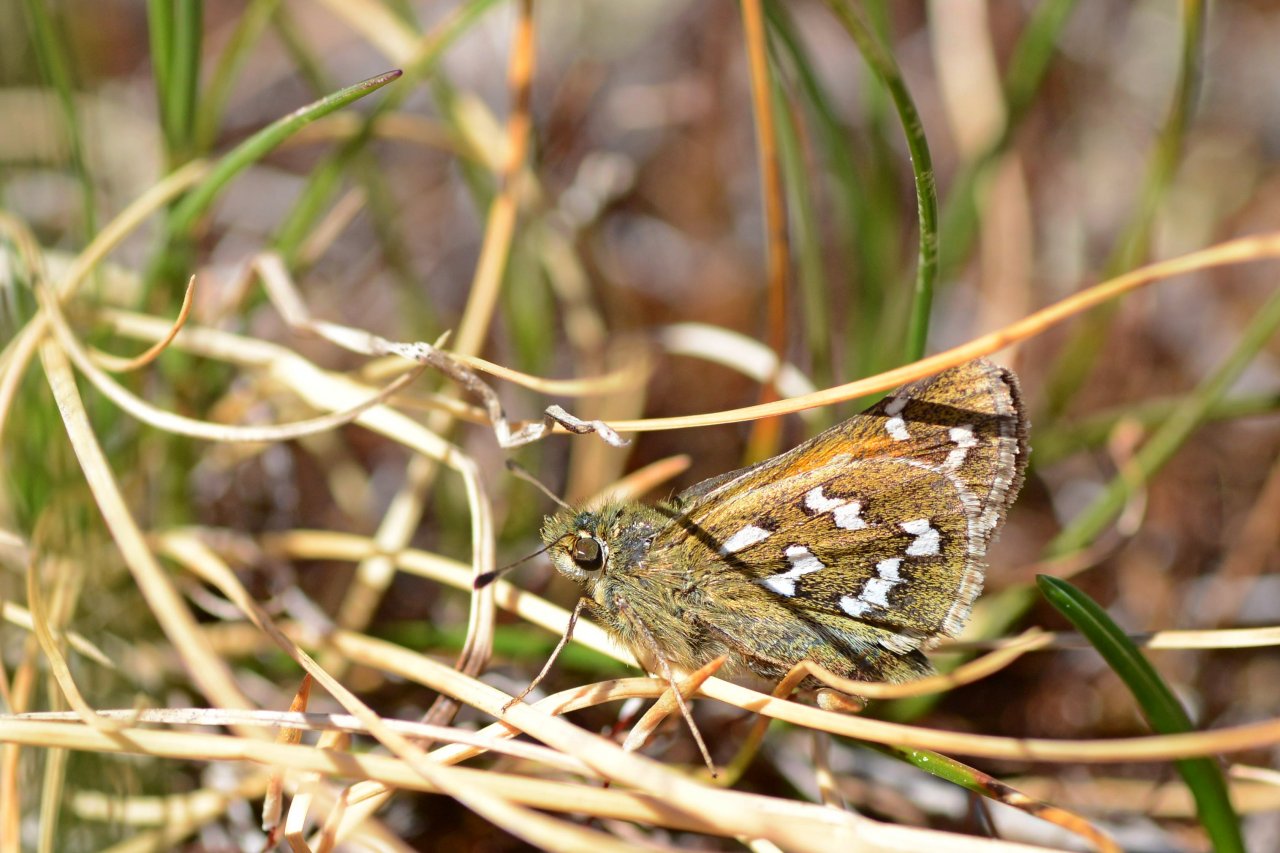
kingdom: Animalia
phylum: Arthropoda
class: Insecta
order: Lepidoptera
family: Hesperiidae
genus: Hesperia
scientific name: Hesperia comma
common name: Common Branded Skipper
